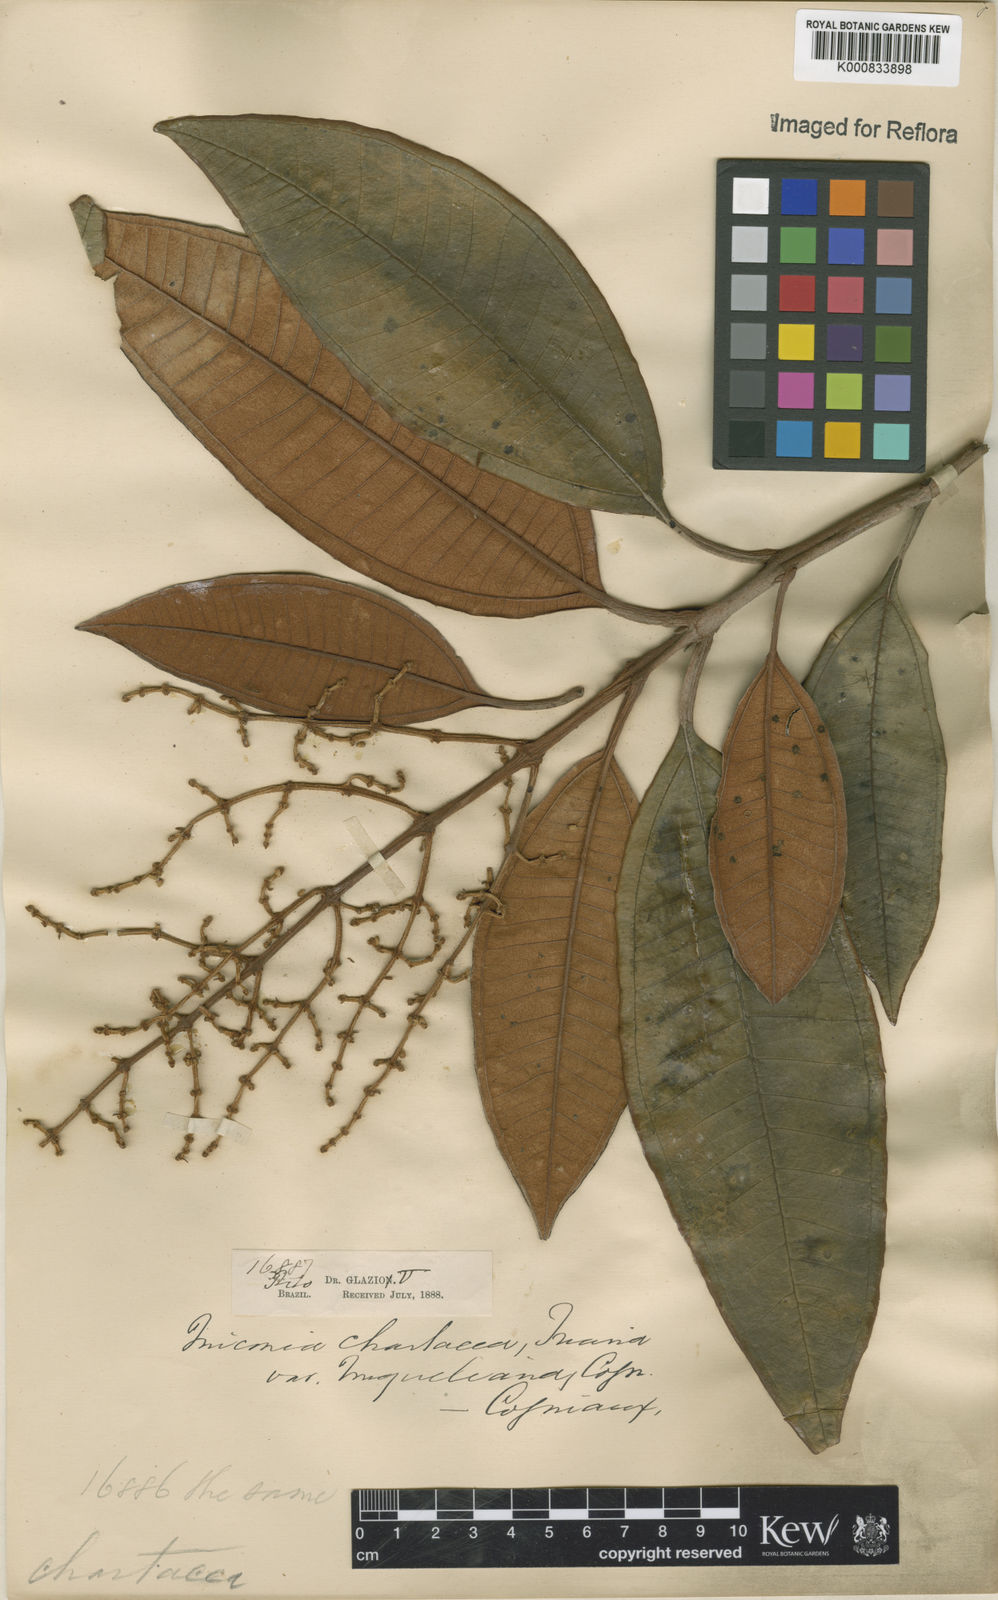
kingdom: Plantae
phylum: Tracheophyta
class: Magnoliopsida
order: Myrtales
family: Melastomataceae
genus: Miconia
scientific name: Miconia chartacea
